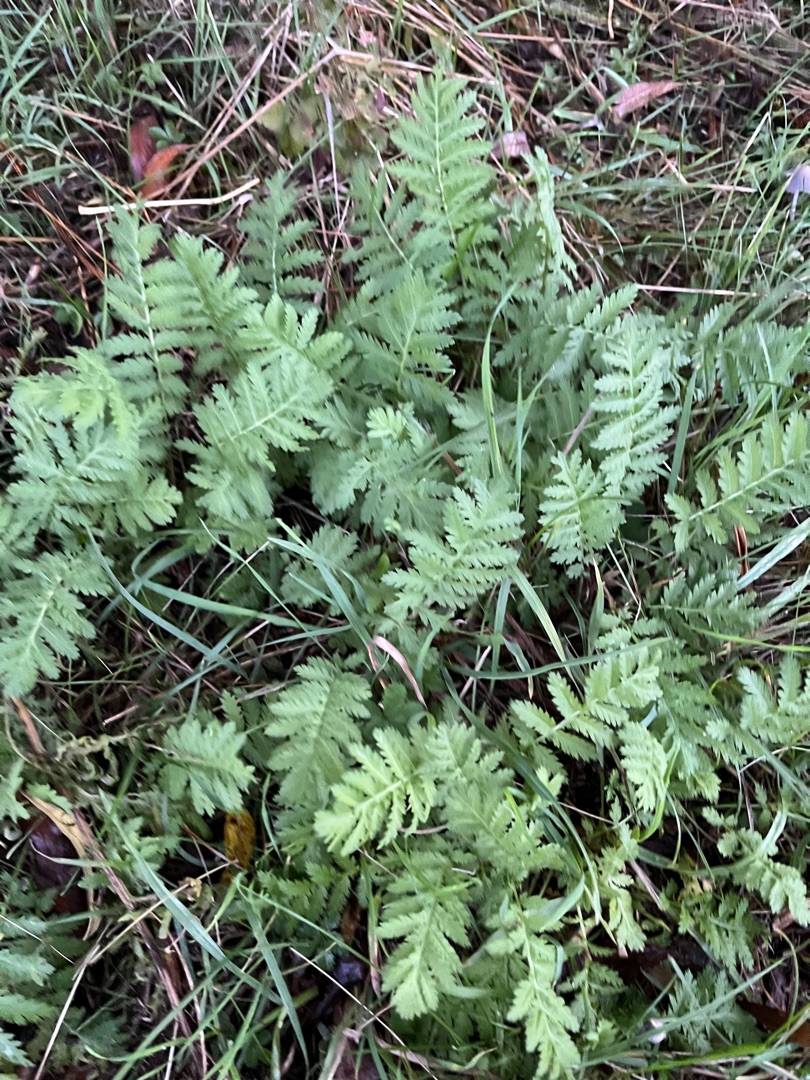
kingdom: Plantae
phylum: Tracheophyta
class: Magnoliopsida
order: Asterales
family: Asteraceae
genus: Tanacetum
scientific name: Tanacetum vulgare
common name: Rejnfan
